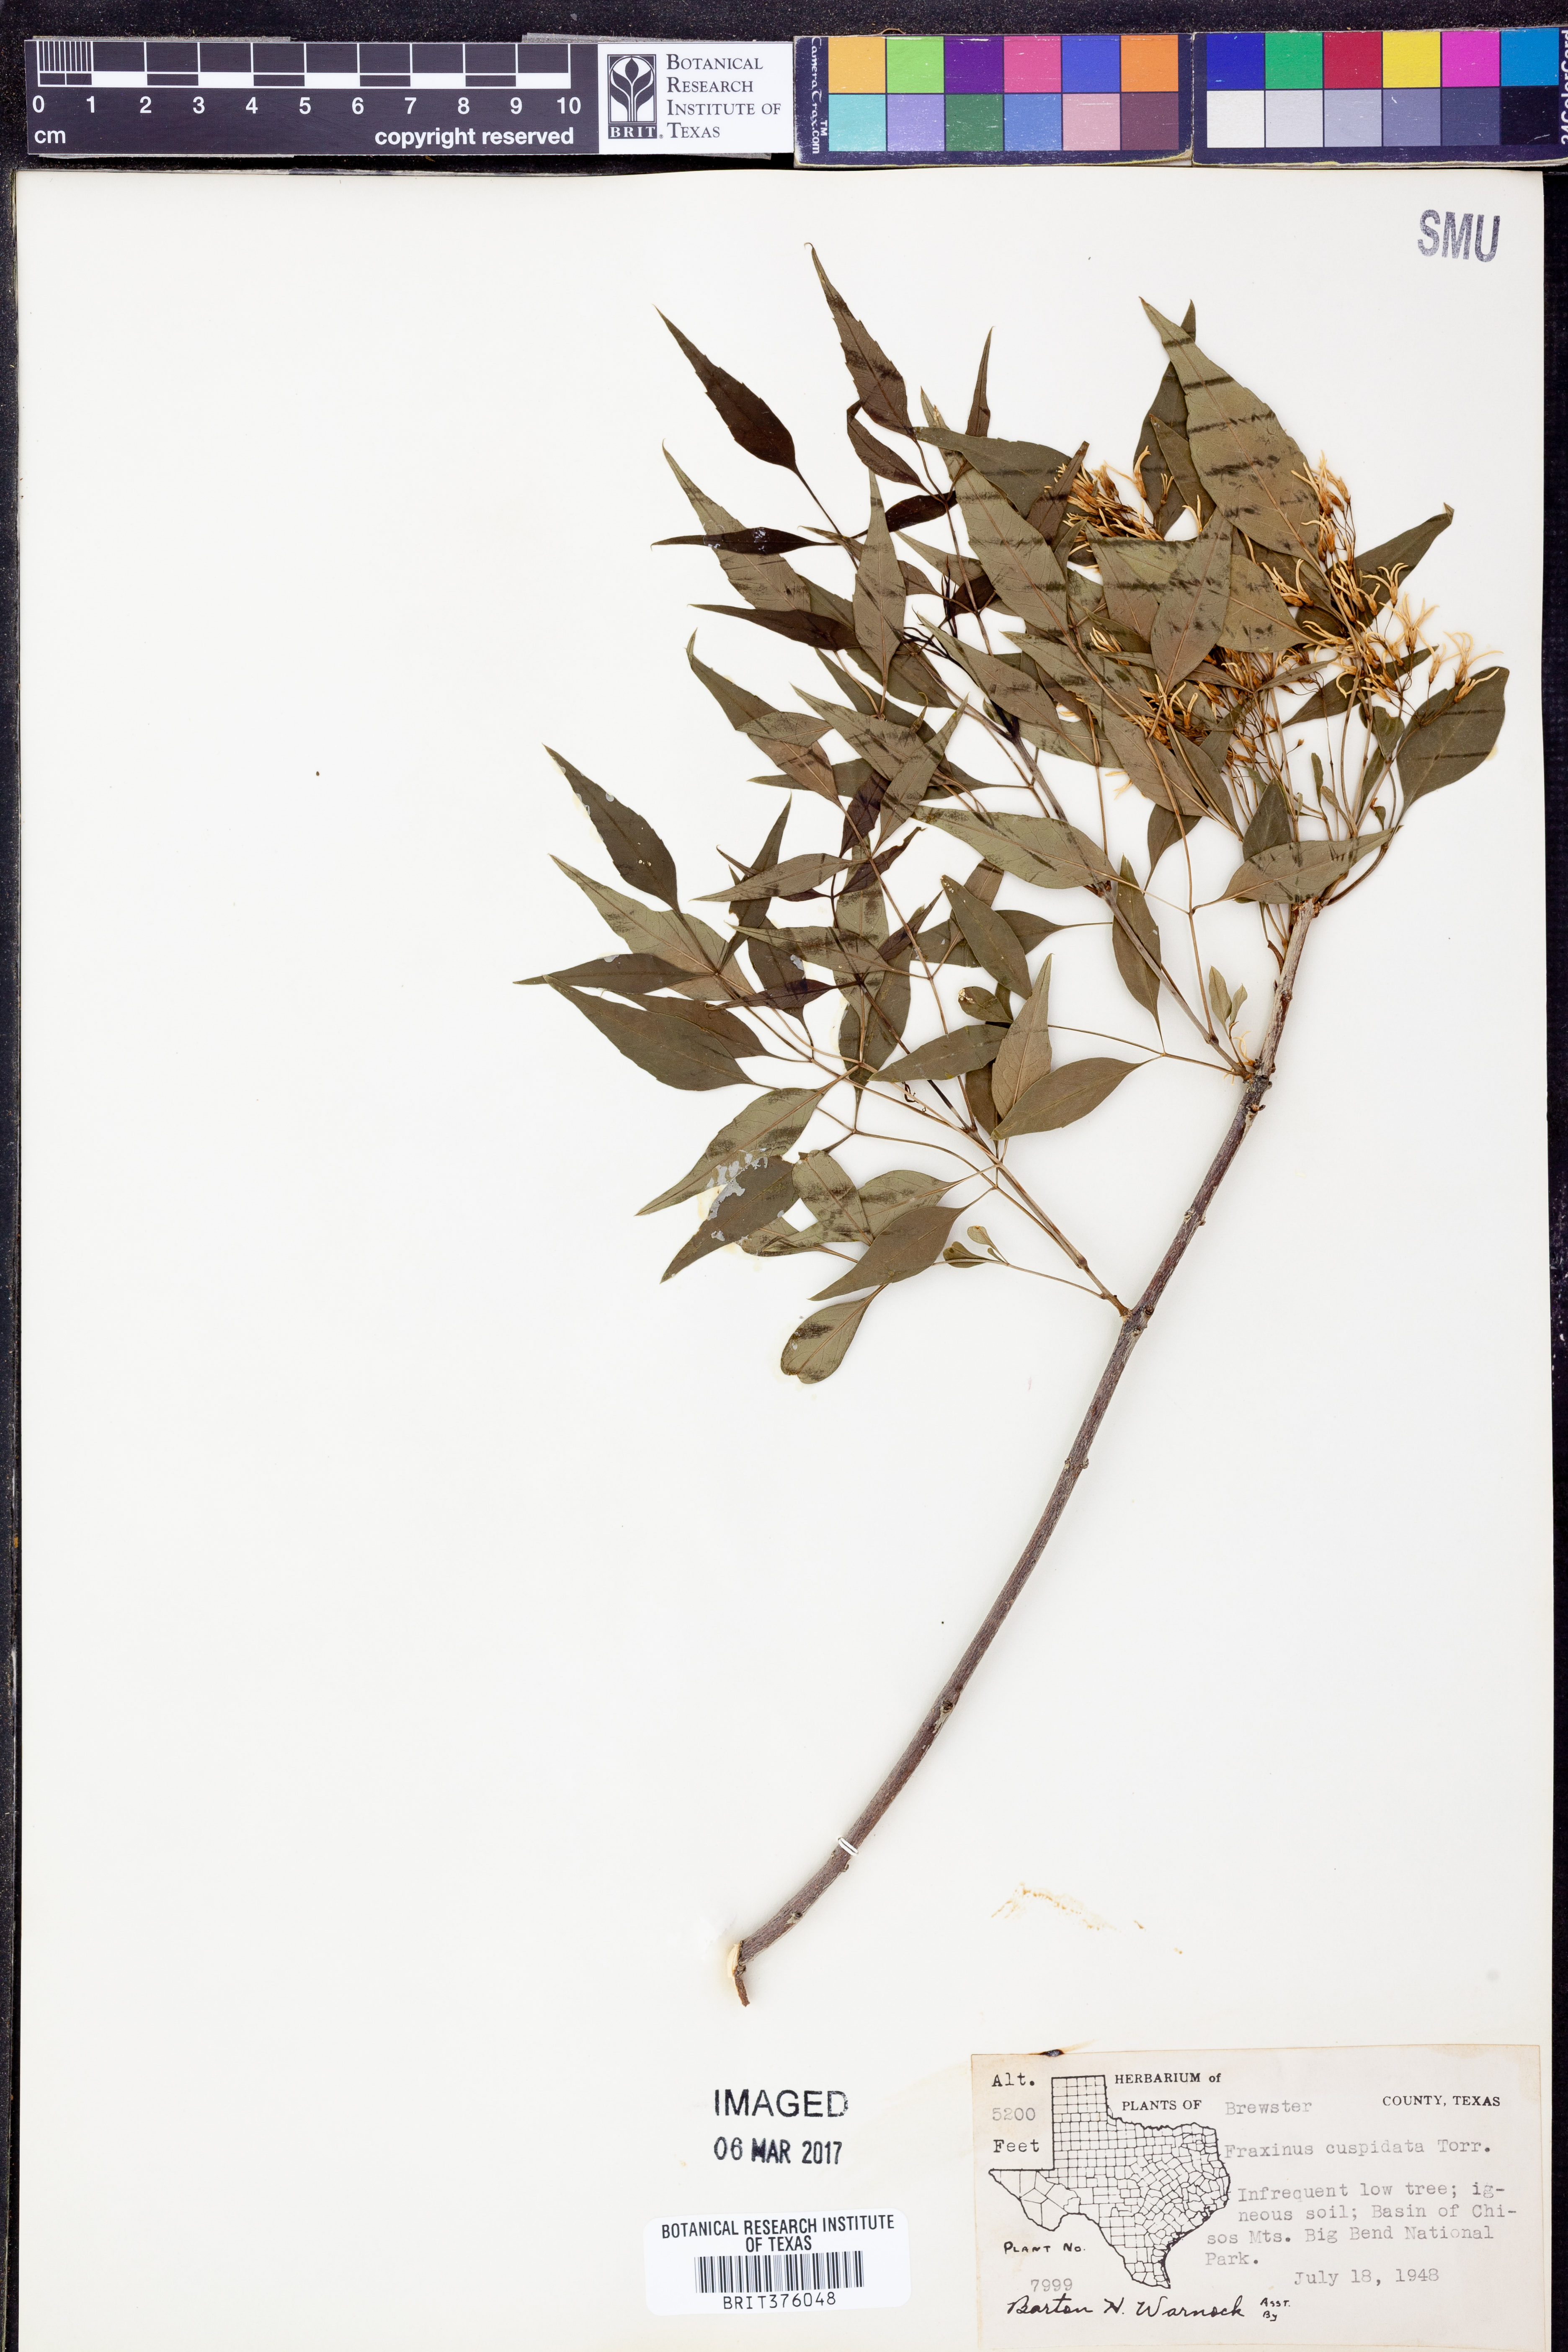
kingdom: Plantae
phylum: Tracheophyta
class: Magnoliopsida
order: Lamiales
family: Oleaceae
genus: Fraxinus
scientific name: Fraxinus cuspidata
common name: Fragrant ash
